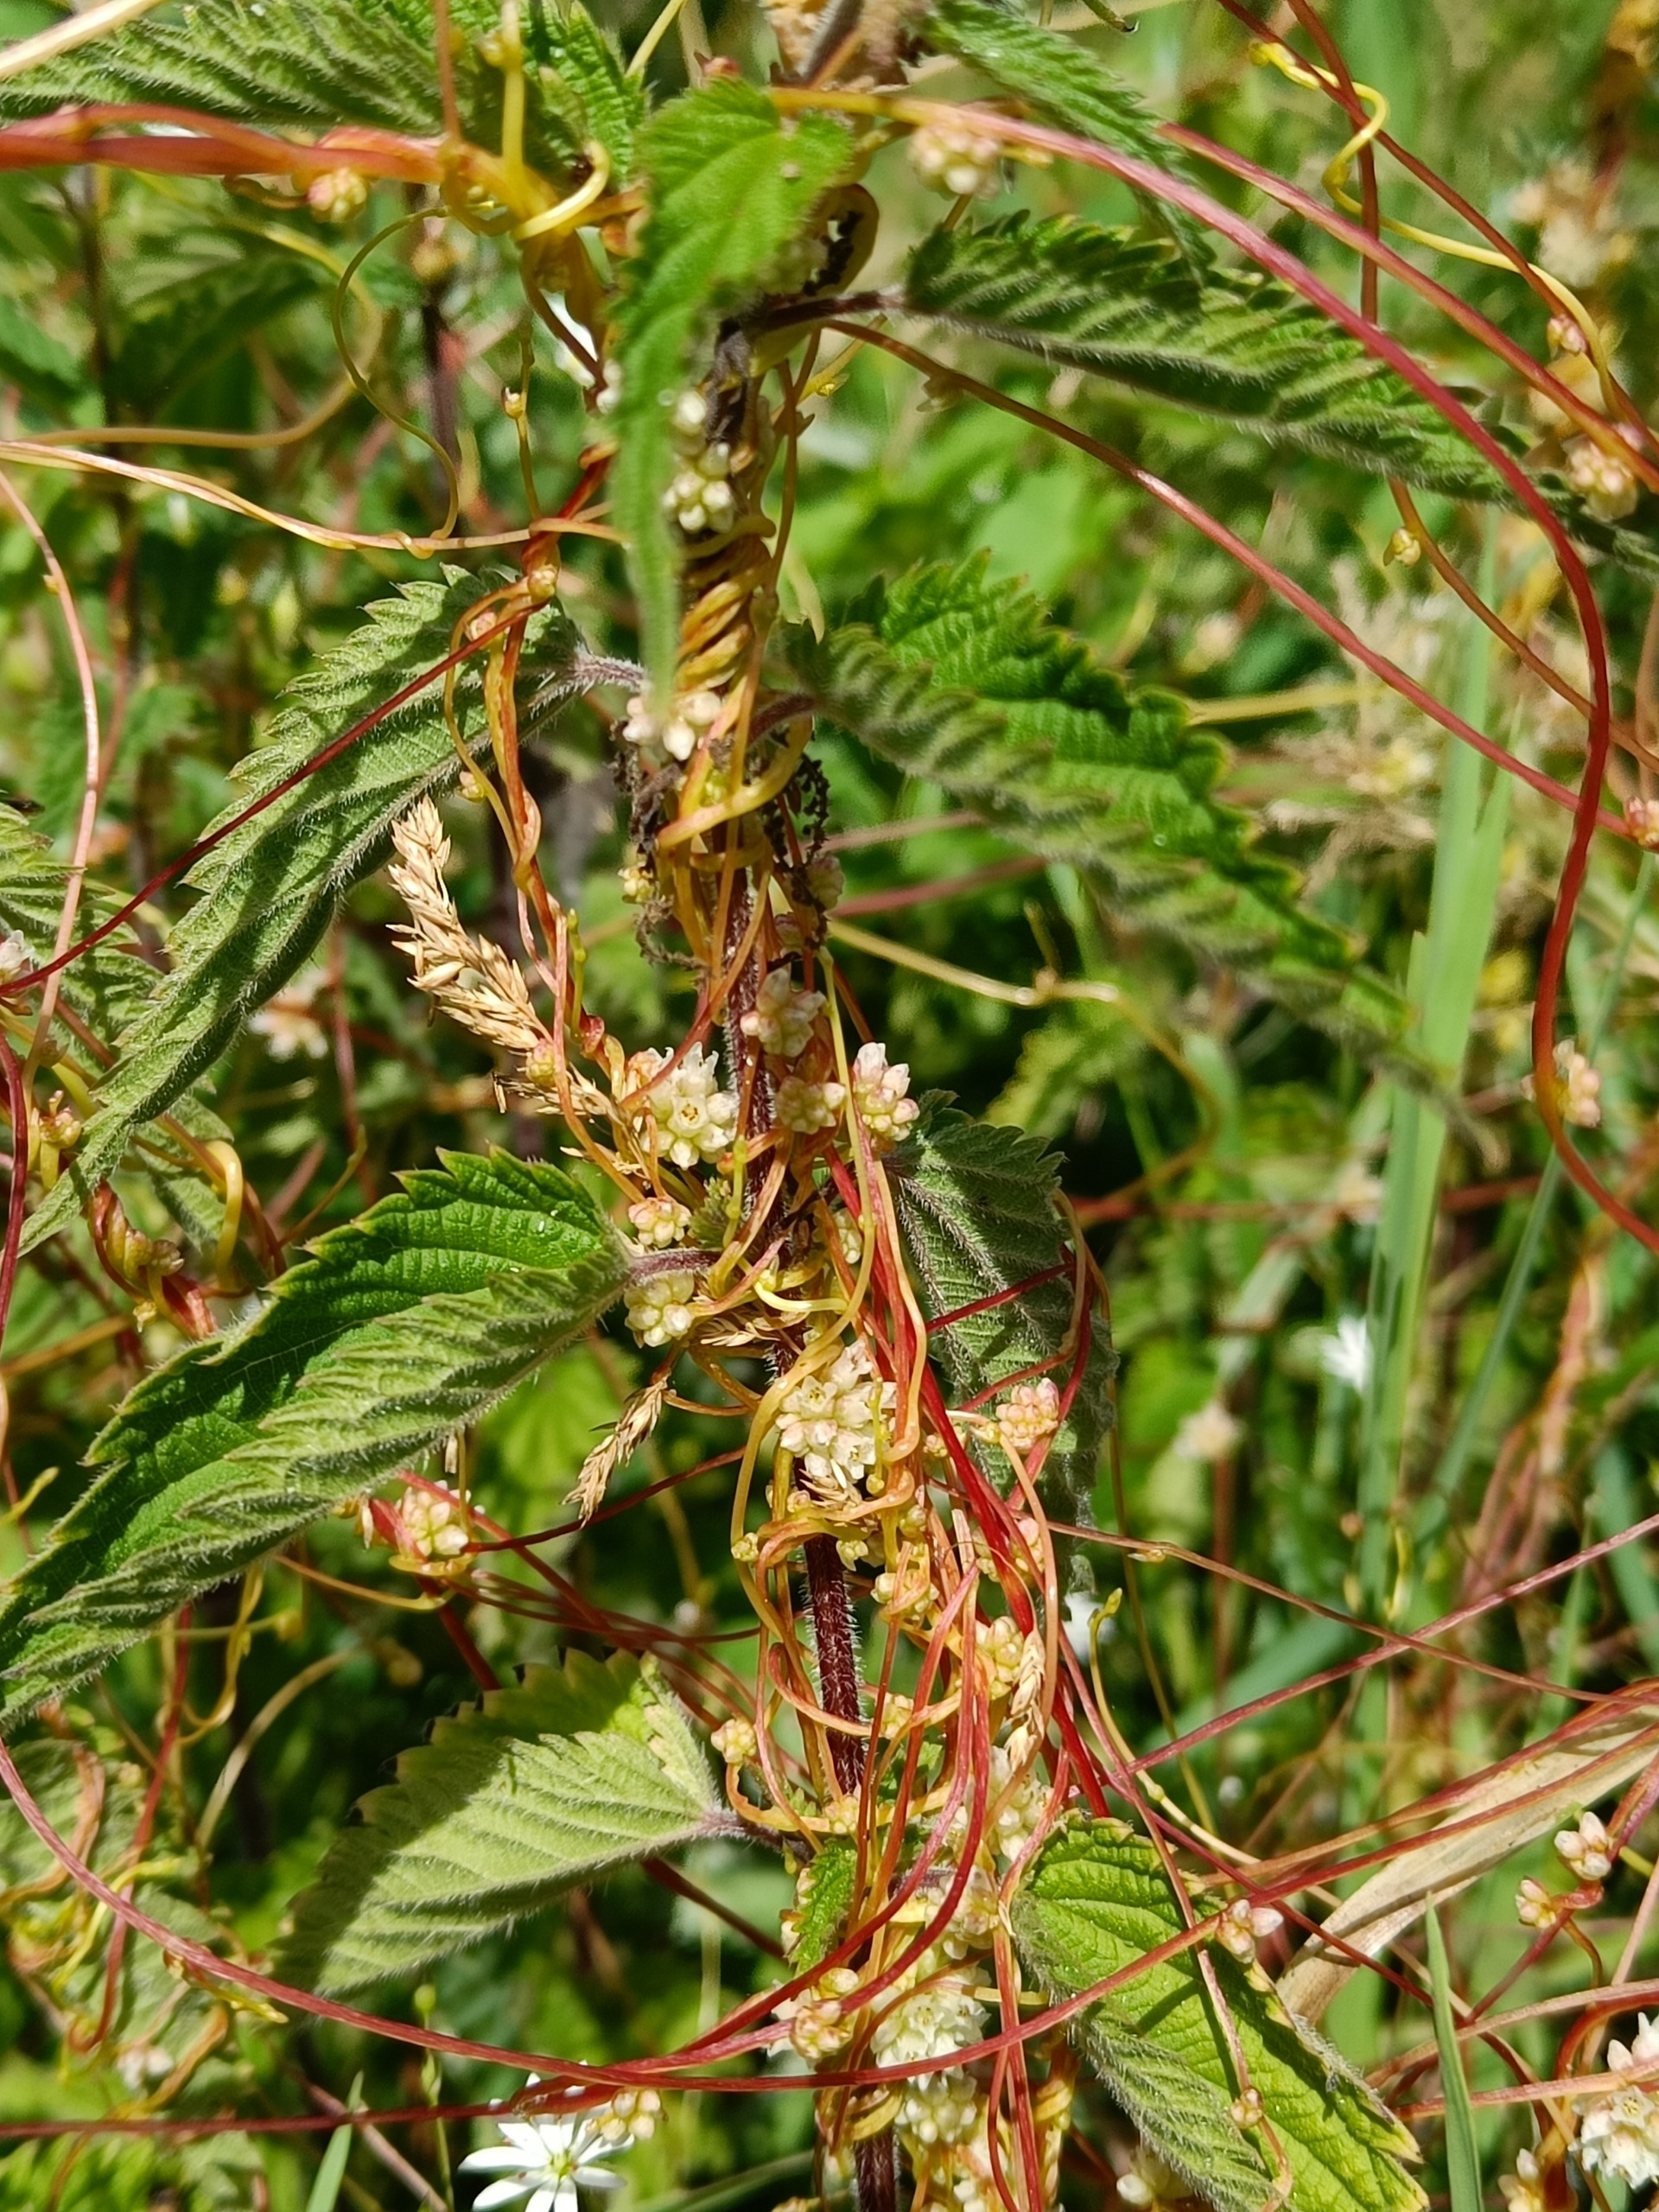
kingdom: Plantae
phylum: Tracheophyta
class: Magnoliopsida
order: Solanales
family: Convolvulaceae
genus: Cuscuta
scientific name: Cuscuta europaea
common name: Nælde-silke
